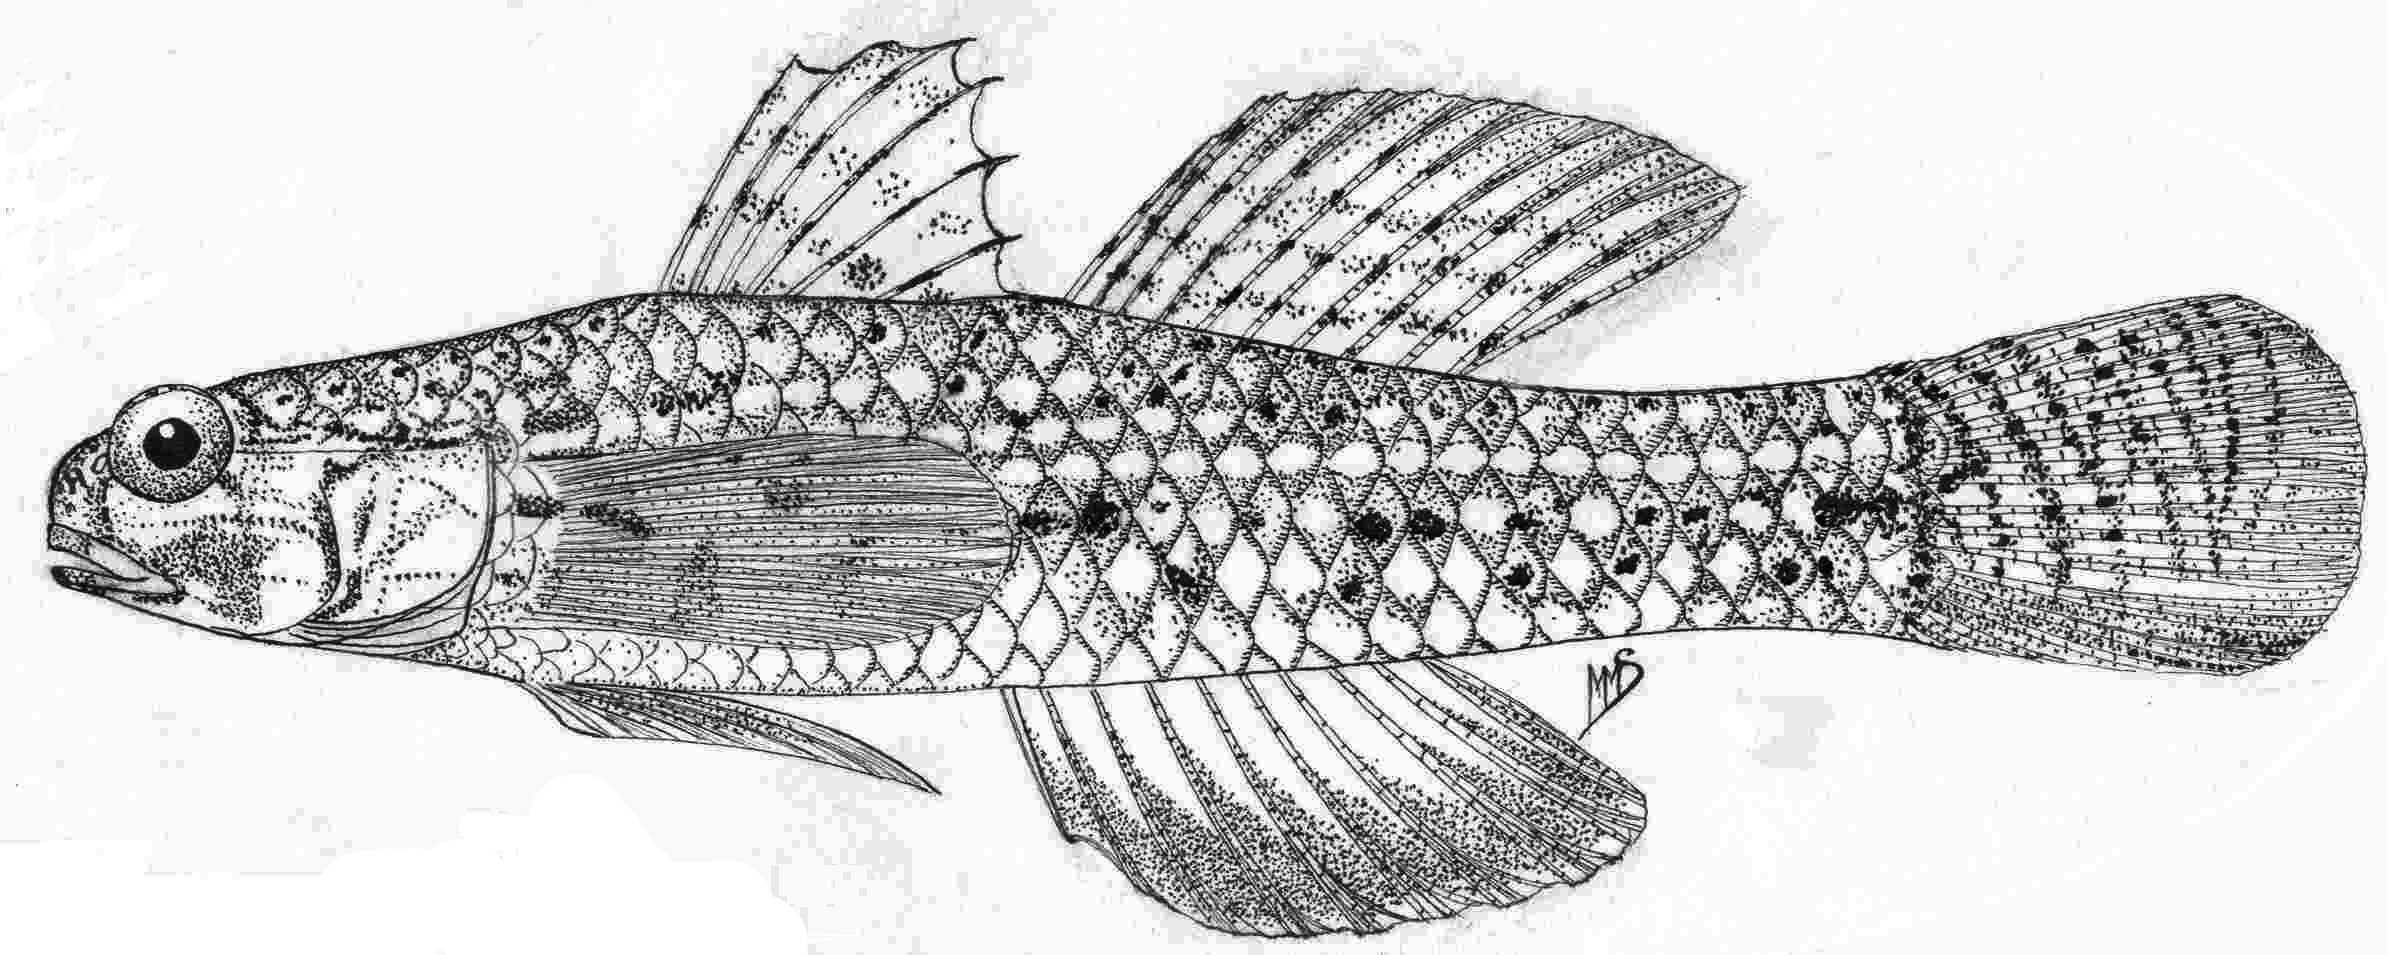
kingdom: Animalia
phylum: Chordata
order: Perciformes
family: Gobiidae
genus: Istigobius
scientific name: Istigobius spence
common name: Pearl goby
